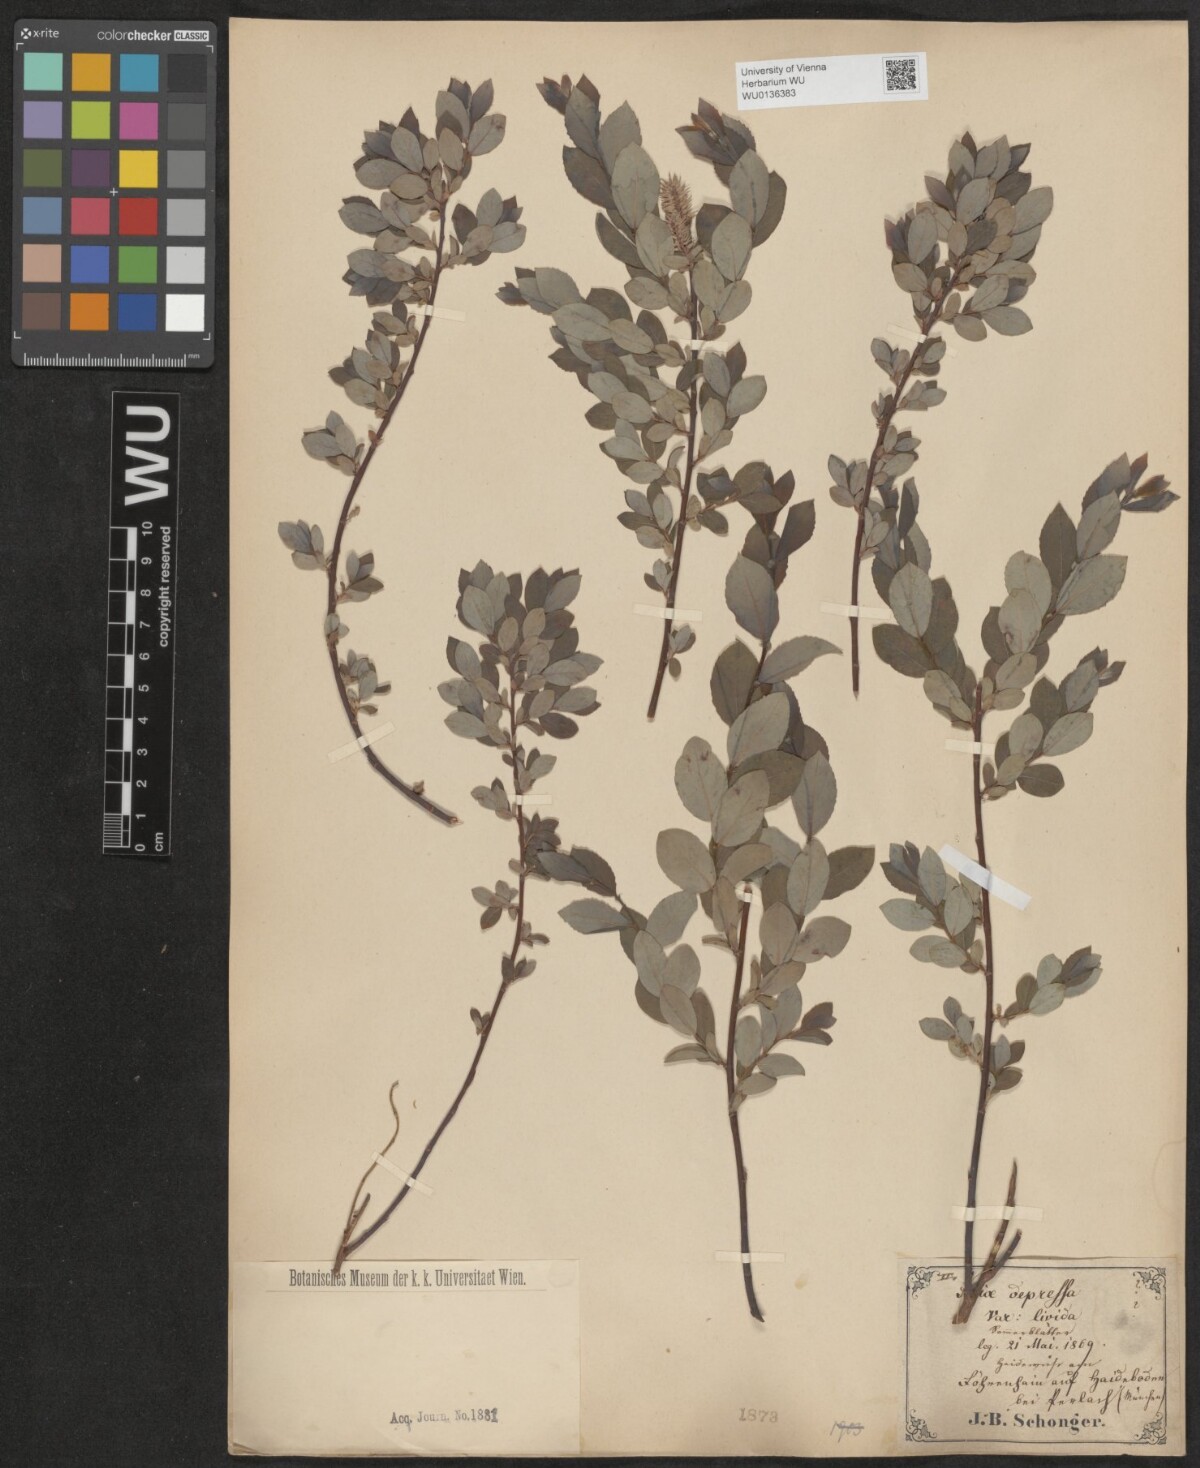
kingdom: Plantae
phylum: Tracheophyta
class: Magnoliopsida
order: Malpighiales
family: Salicaceae
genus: Salix
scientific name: Salix lanata
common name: Woolly willow
